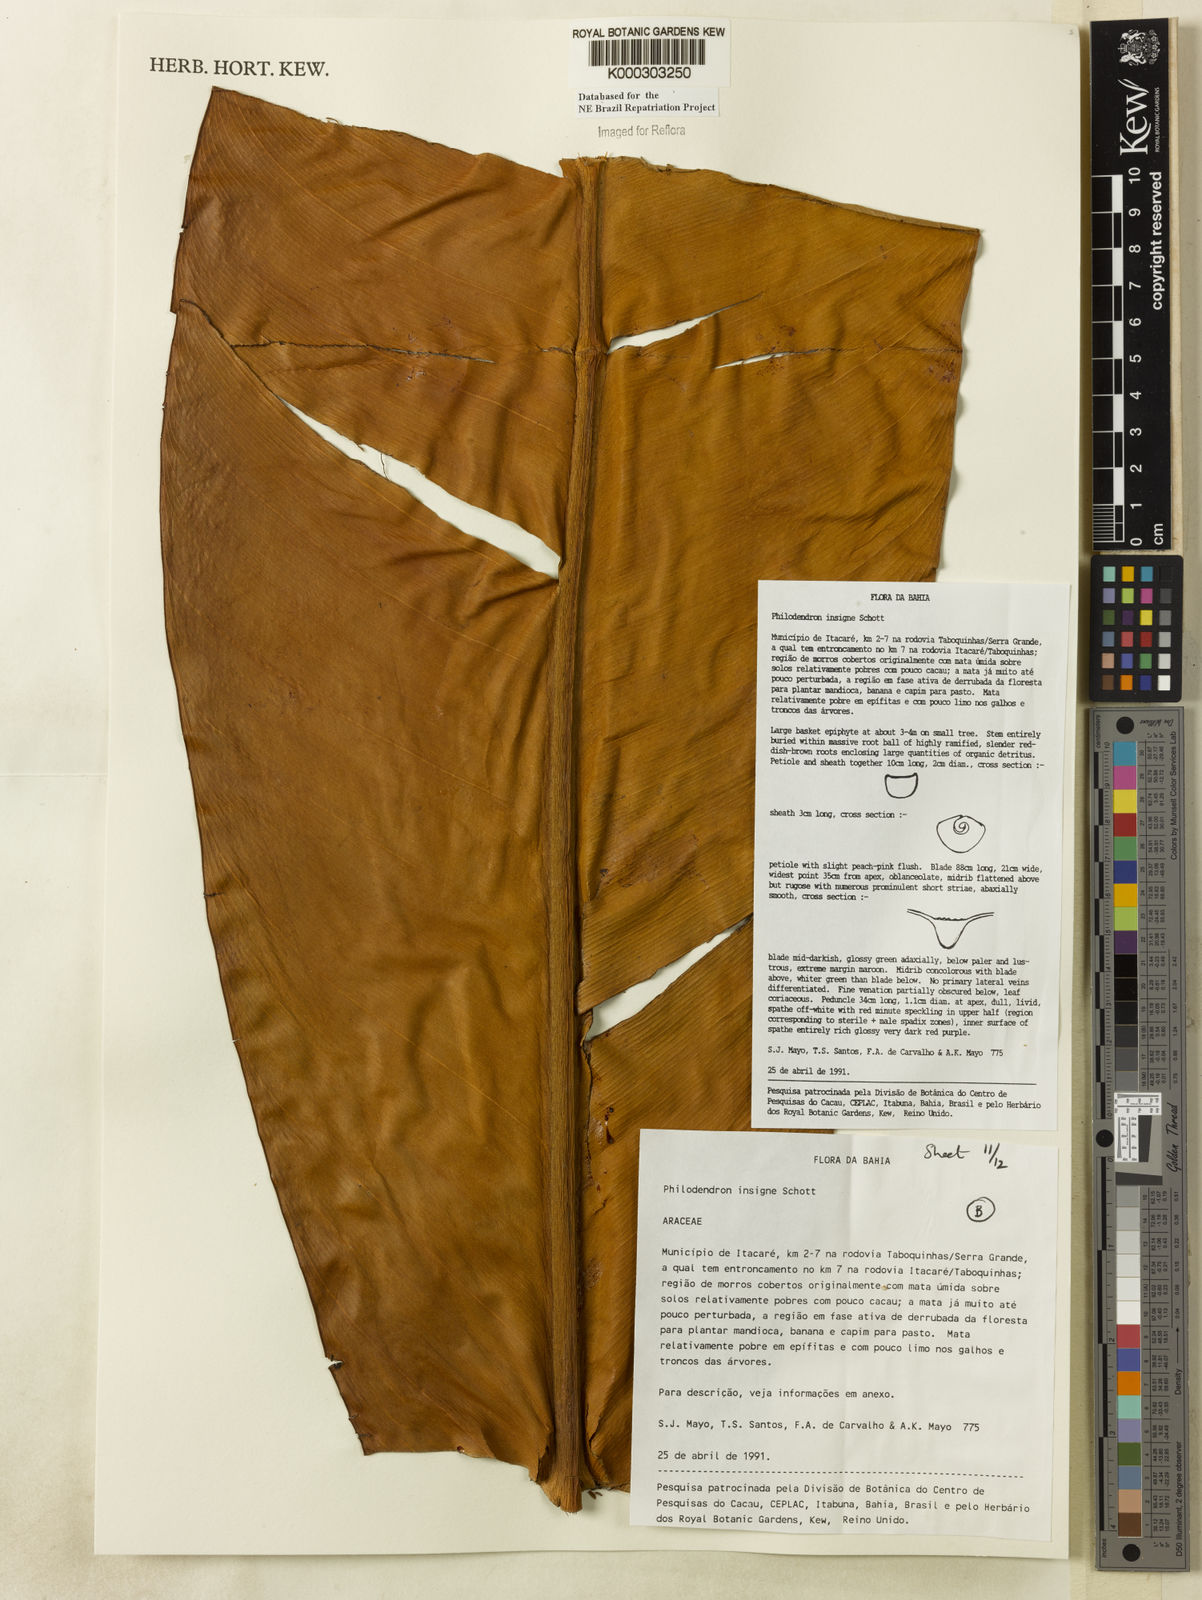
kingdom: Plantae
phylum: Tracheophyta
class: Liliopsida
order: Alismatales
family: Araceae
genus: Philodendron
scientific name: Philodendron insigne
